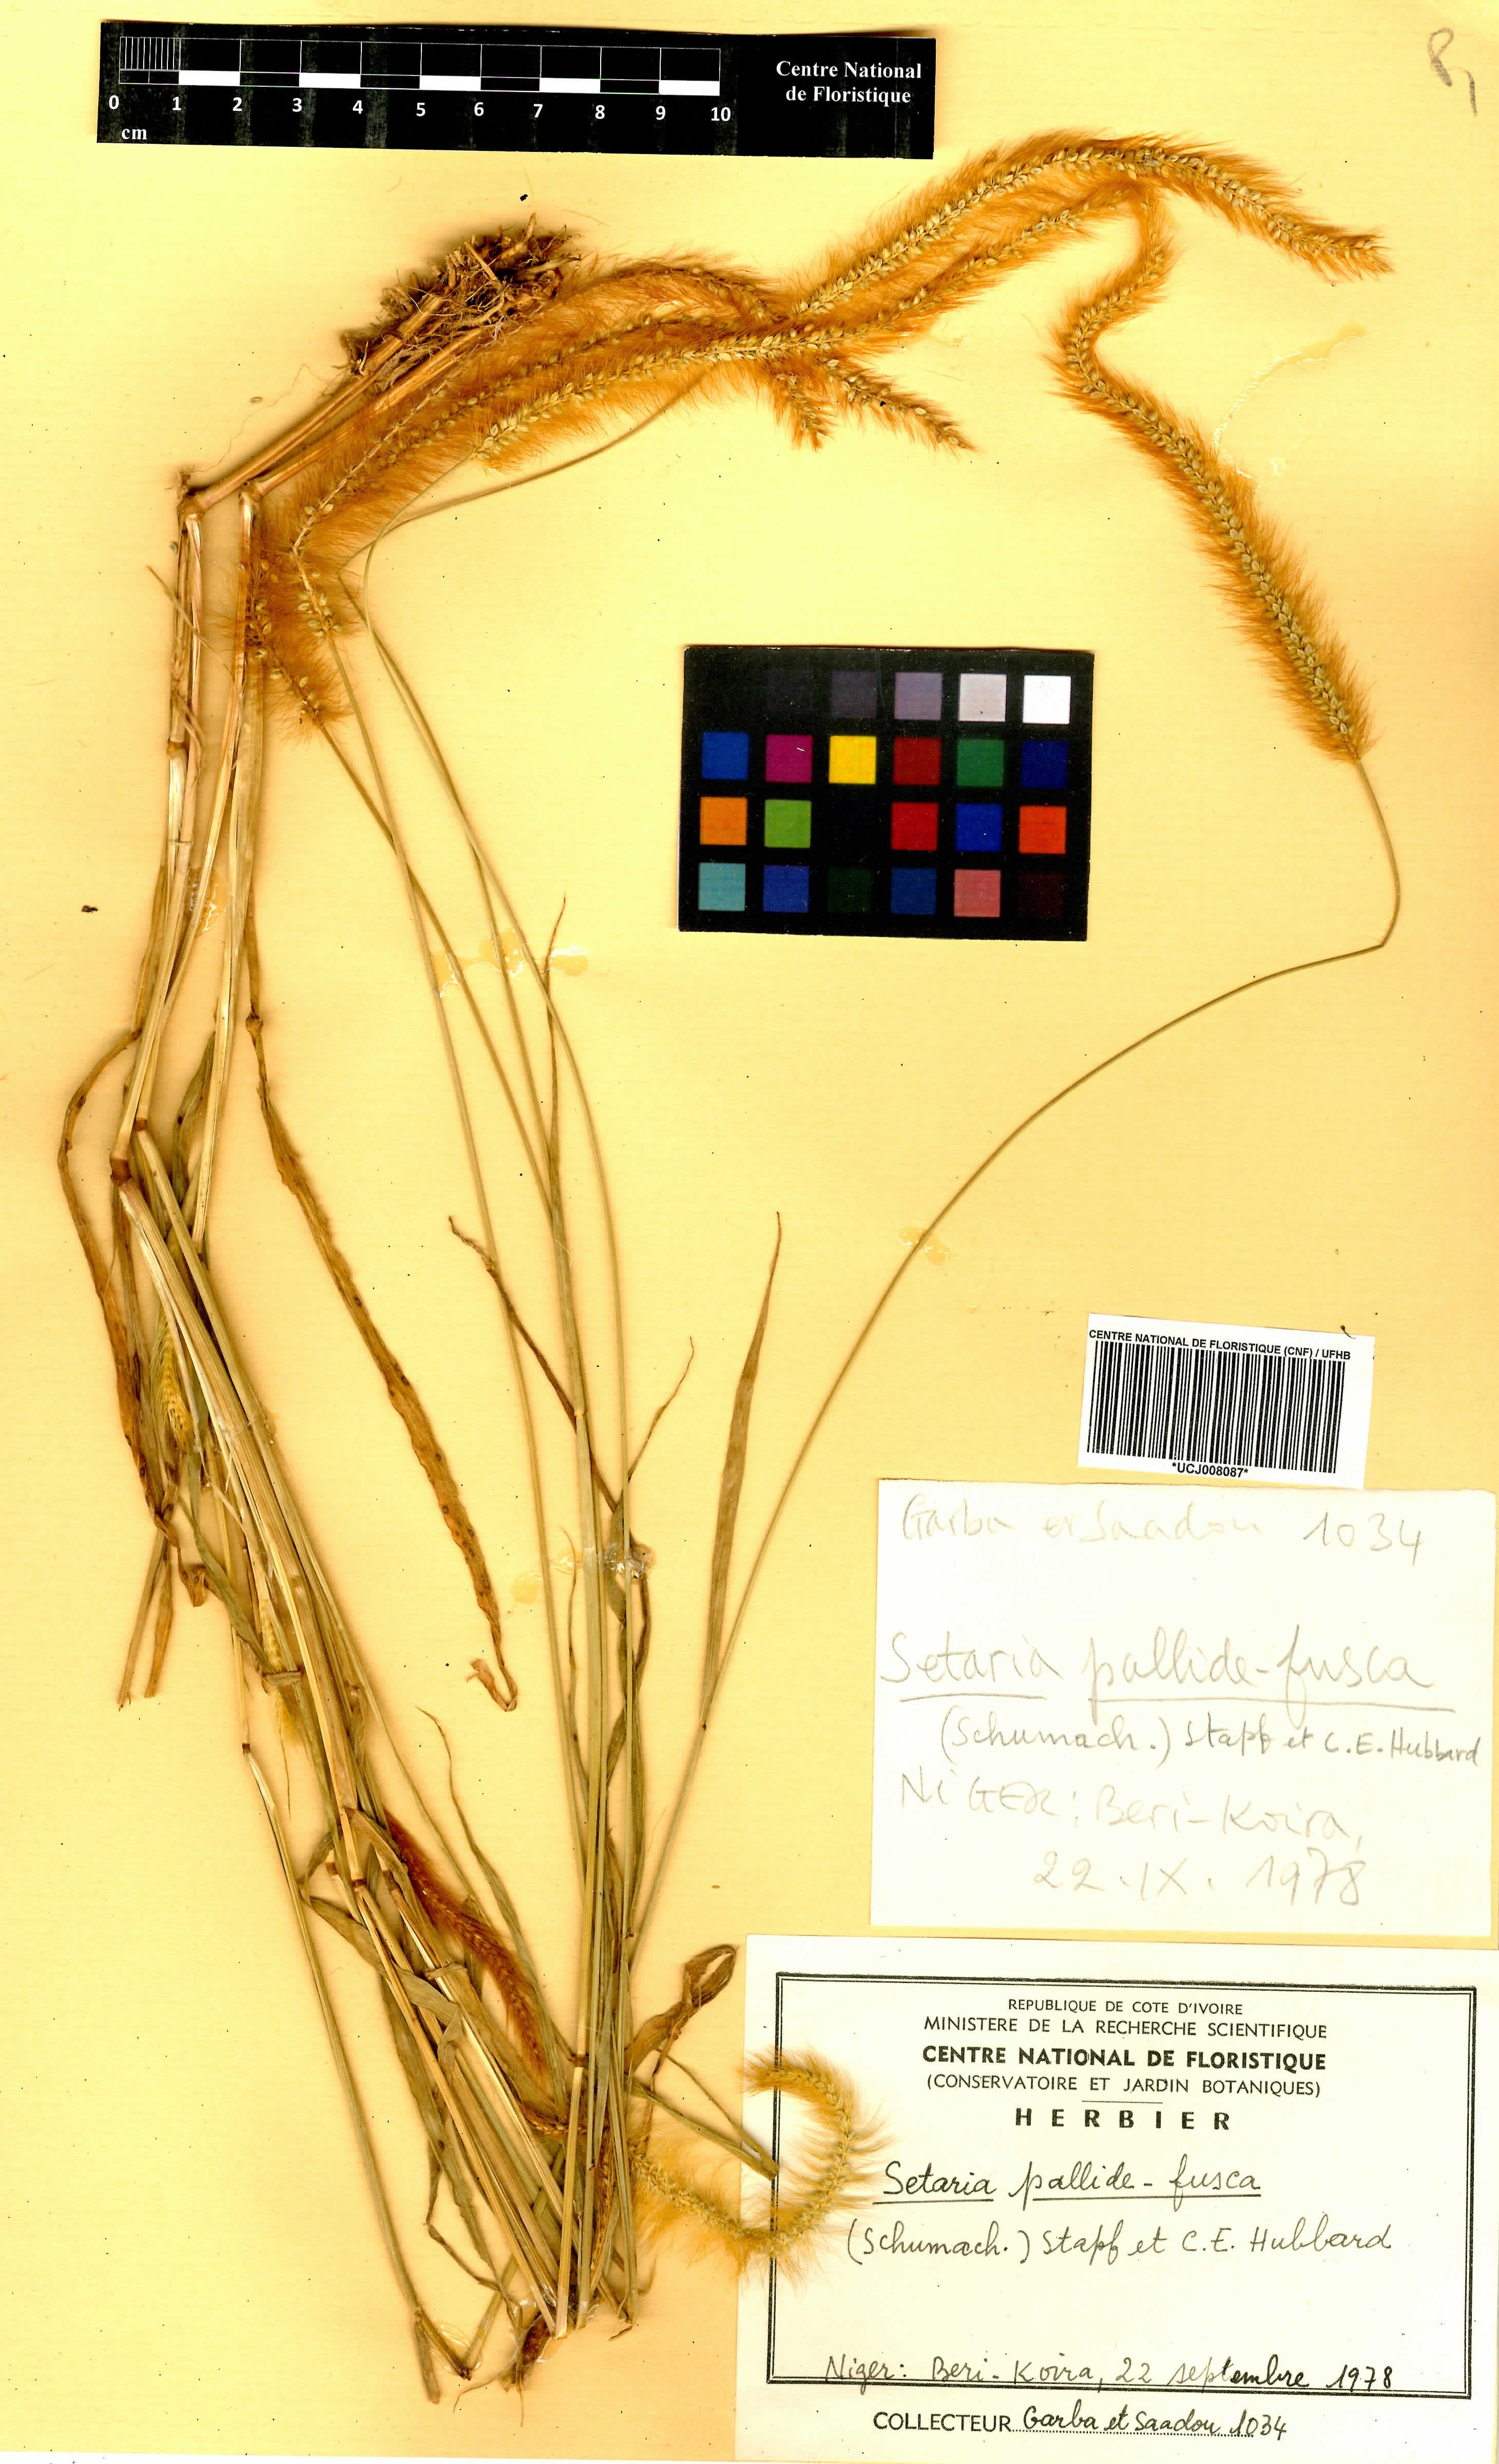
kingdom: Plantae
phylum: Tracheophyta
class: Liliopsida
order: Poales
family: Poaceae
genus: Setaria
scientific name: Setaria italica
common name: Foxtail bristle-grass
